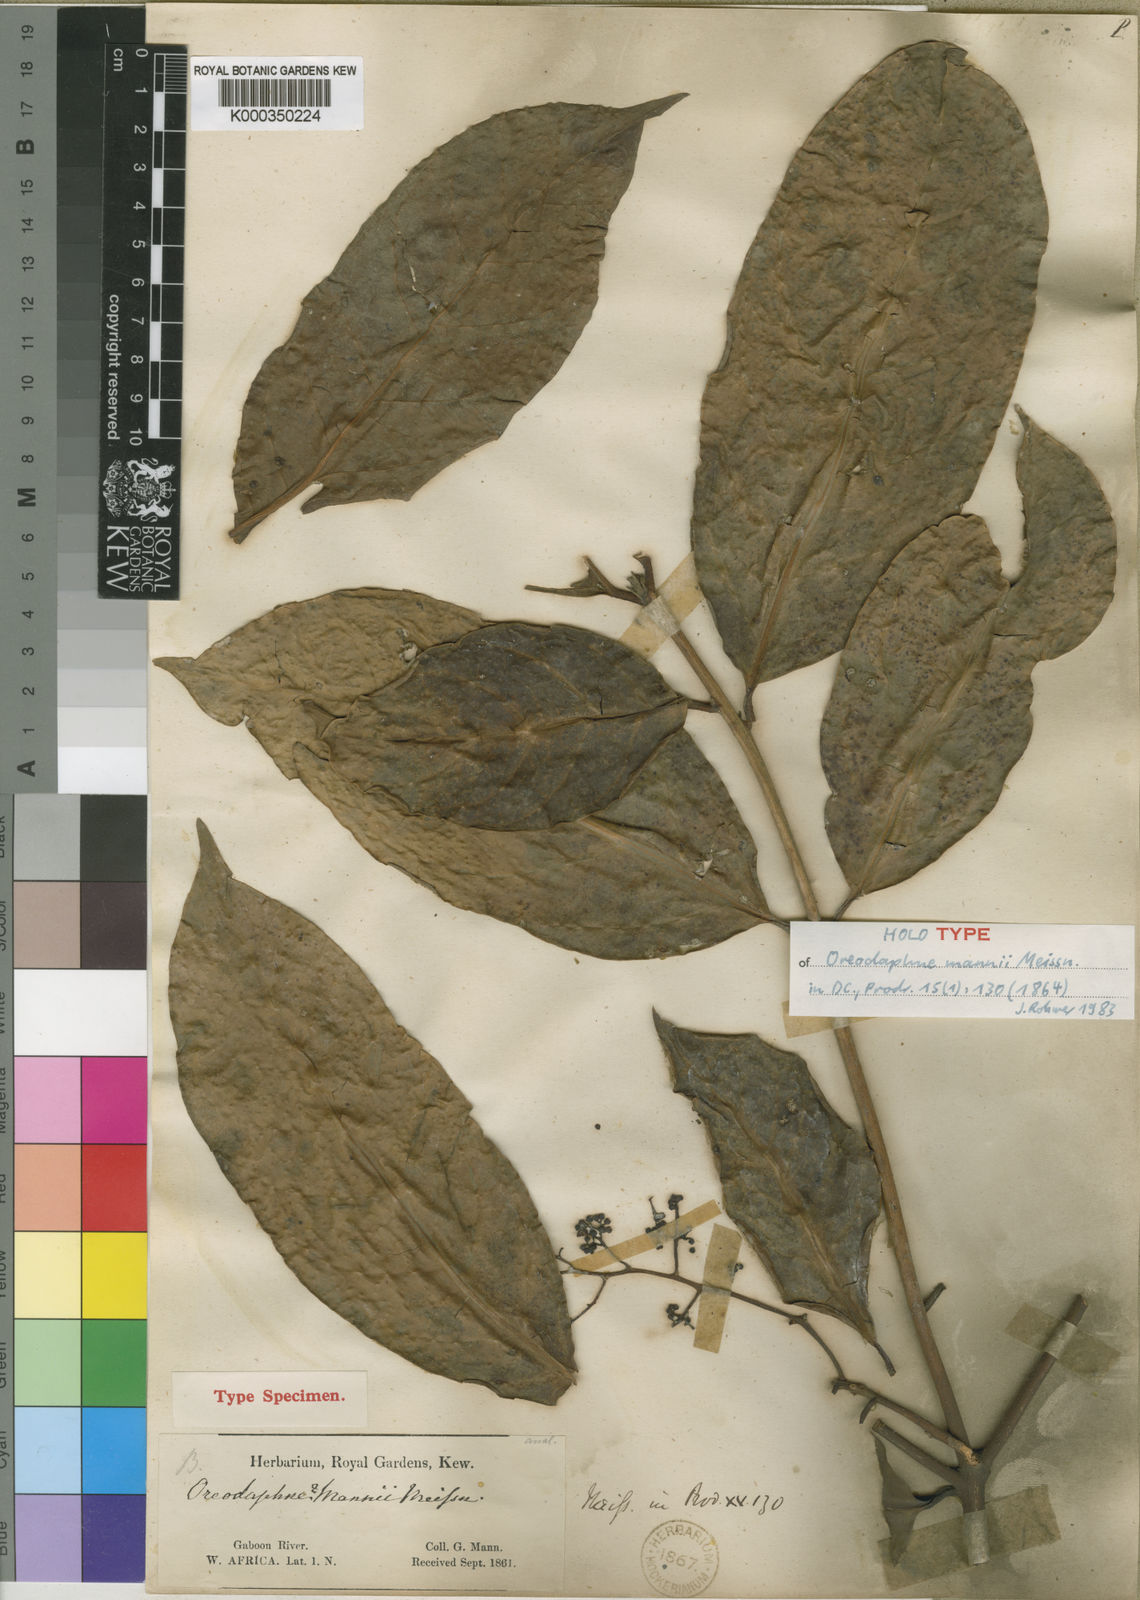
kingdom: Plantae
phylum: Tracheophyta
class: Magnoliopsida
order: Laurales
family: Lauraceae
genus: Beilschmiedia
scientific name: Beilschmiedia
